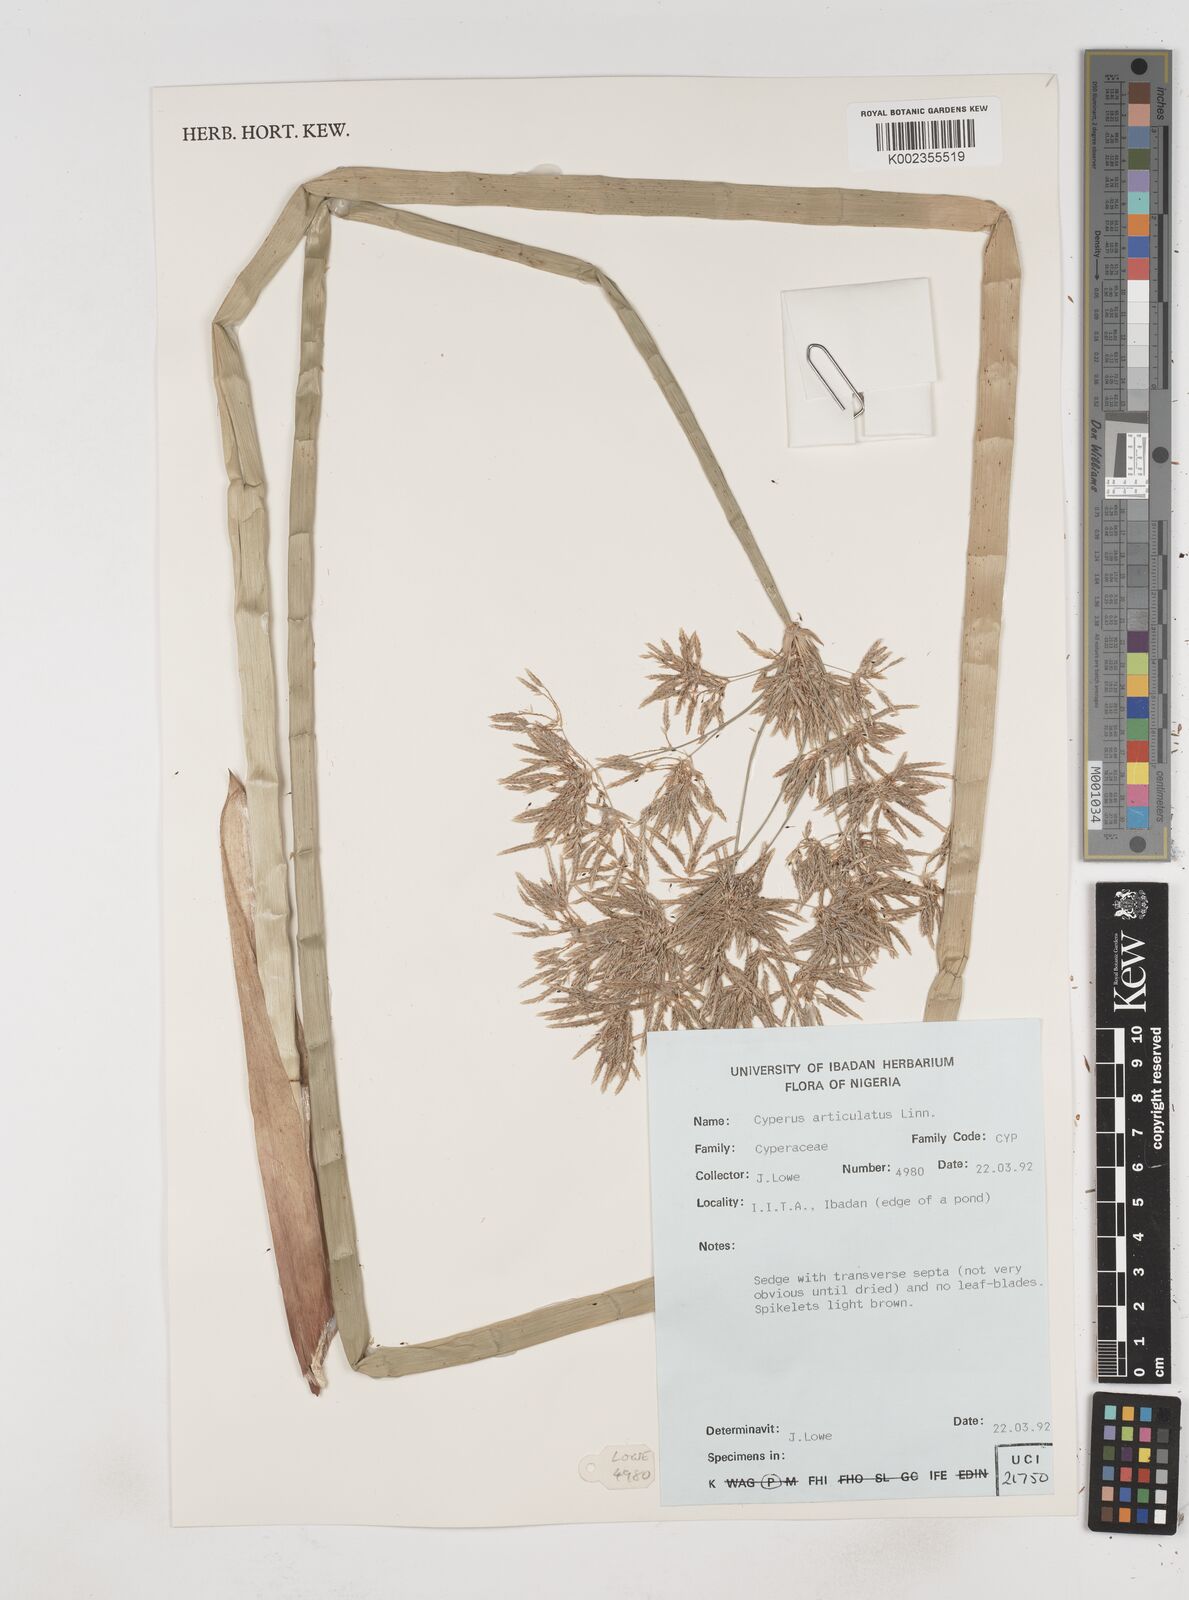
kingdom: Plantae
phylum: Tracheophyta
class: Liliopsida
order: Poales
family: Cyperaceae
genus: Cyperus
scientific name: Cyperus articulatus
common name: Jointed flatsedge
